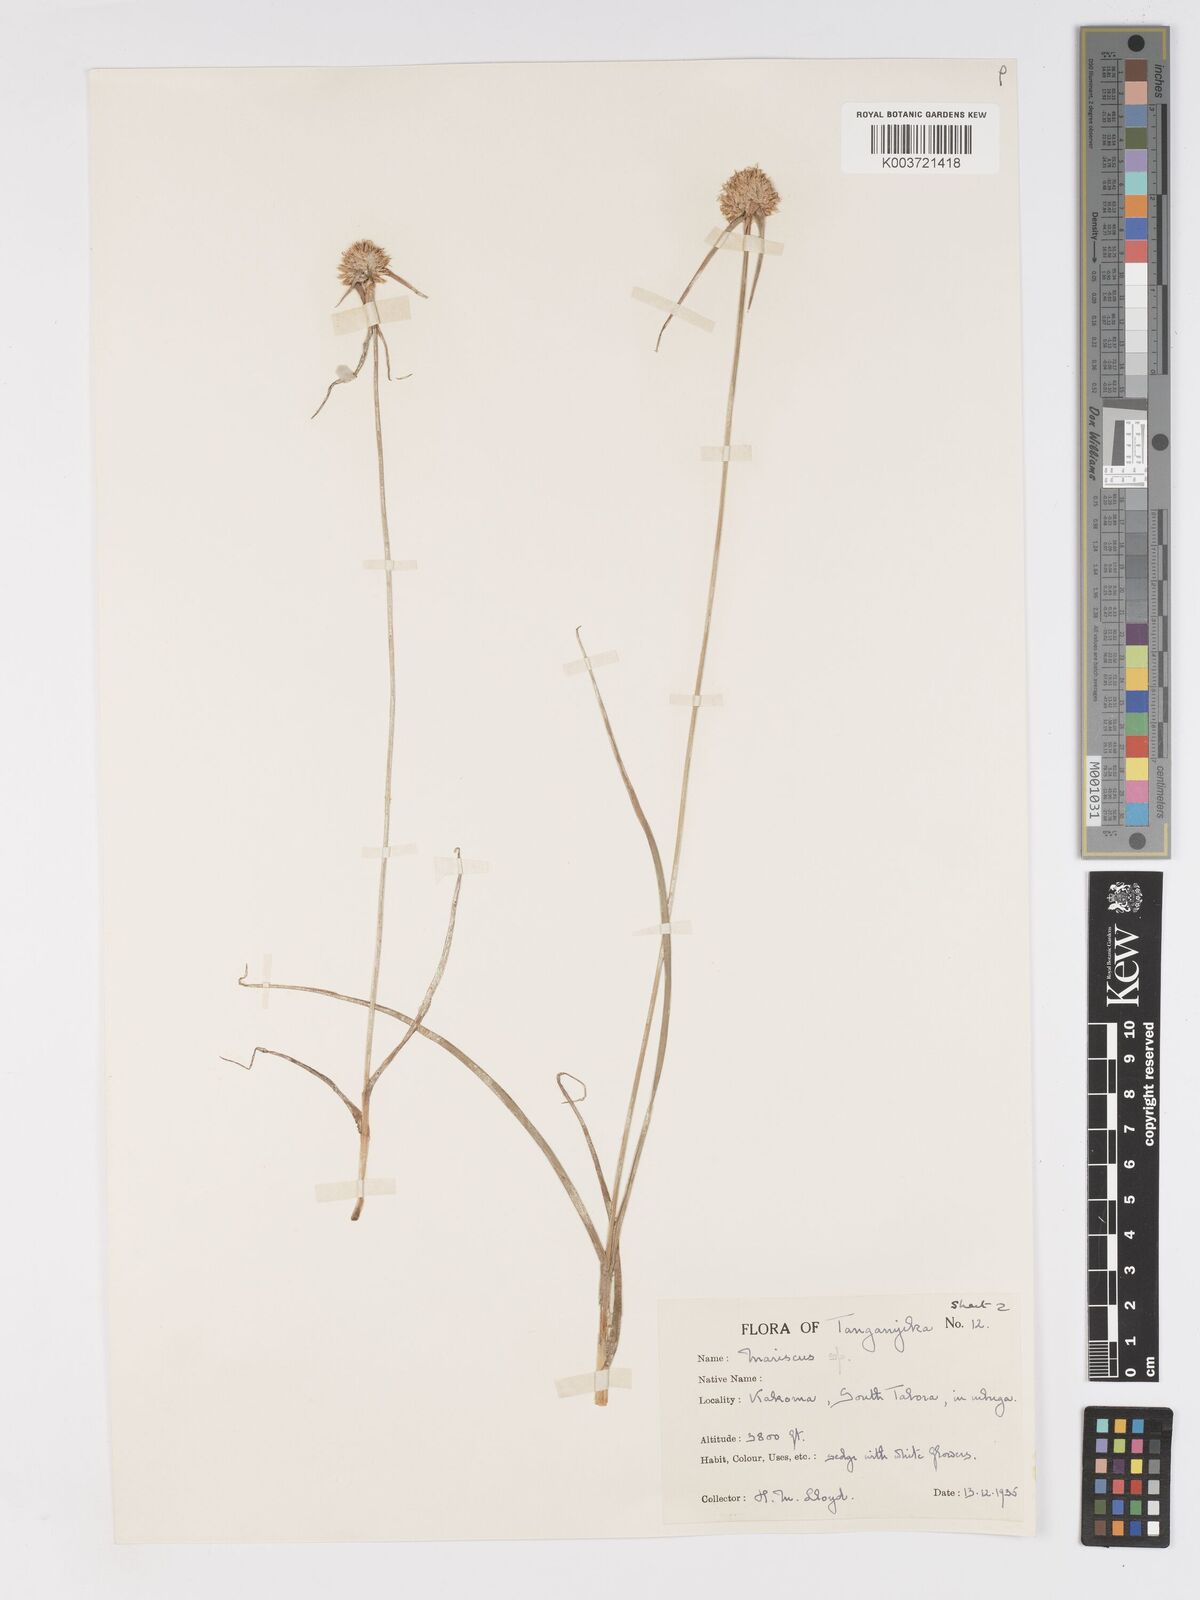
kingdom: Plantae
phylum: Tracheophyta
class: Liliopsida
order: Poales
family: Cyperaceae
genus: Cyperus
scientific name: Cyperus mollipes
